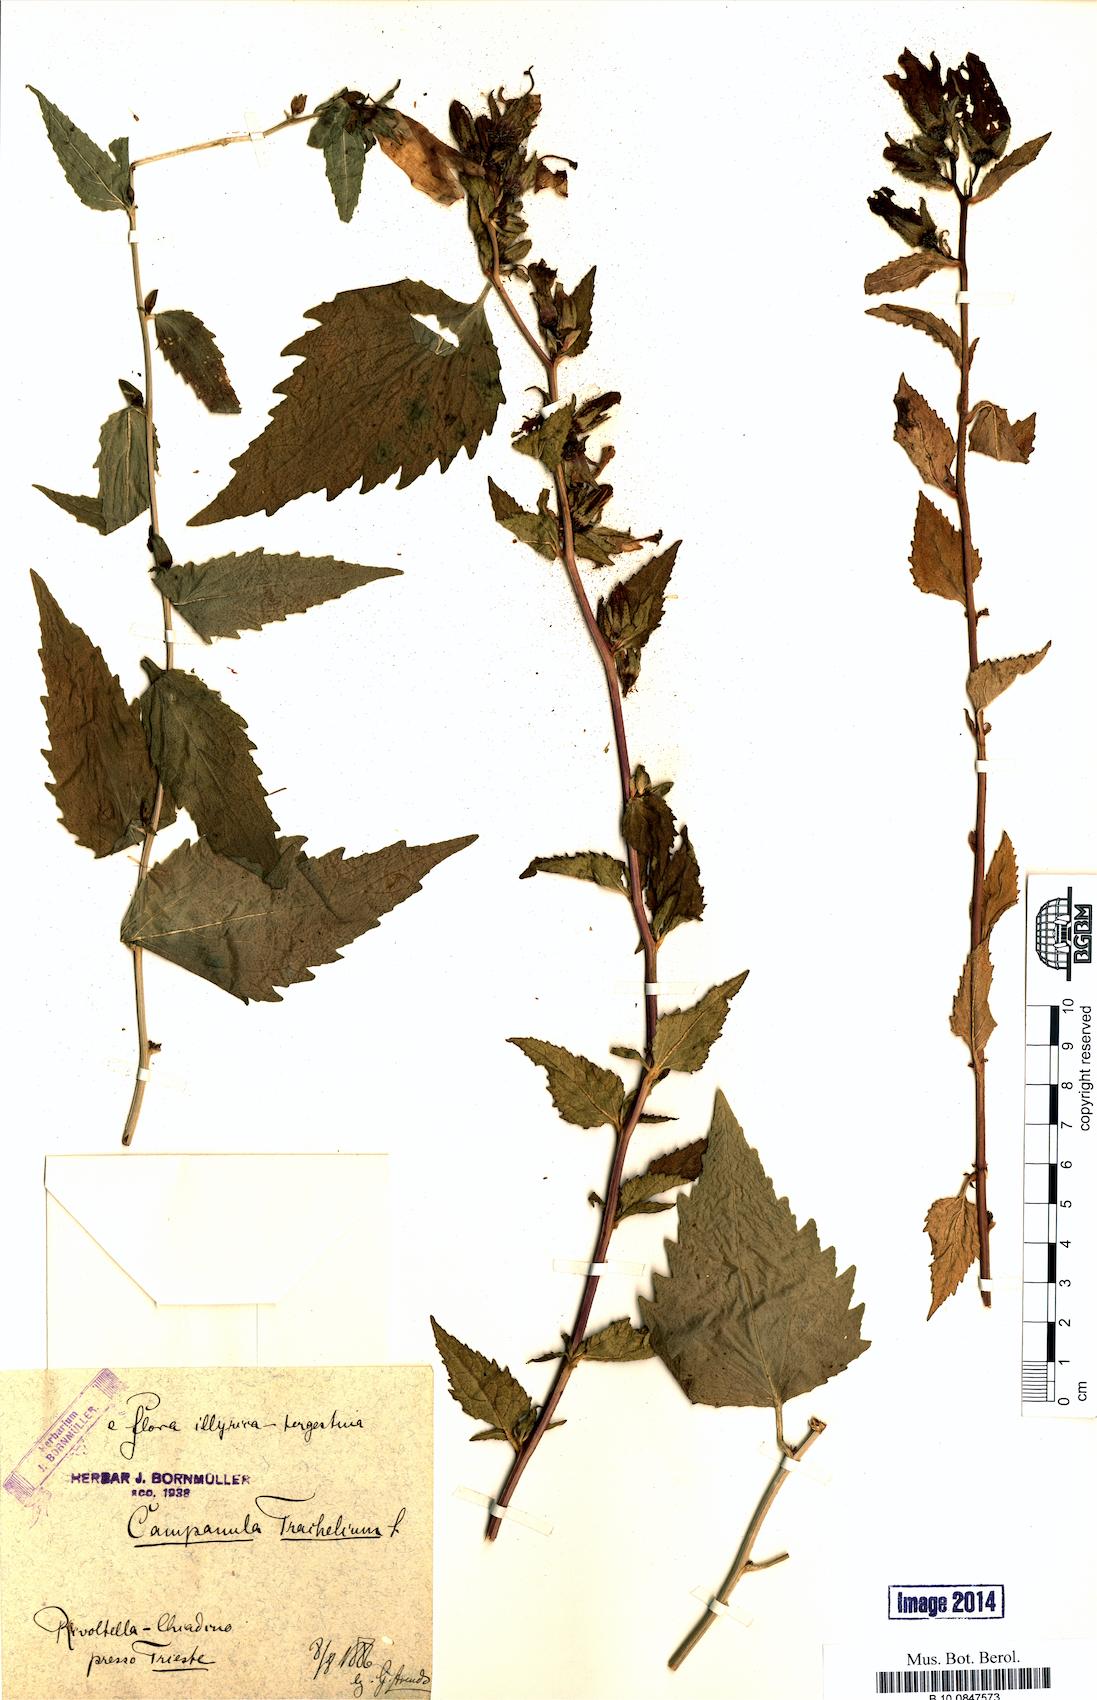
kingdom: Plantae
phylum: Tracheophyta
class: Magnoliopsida
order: Asterales
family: Campanulaceae
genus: Campanula
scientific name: Campanula trachelium
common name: Nettle-leaved bellflower
